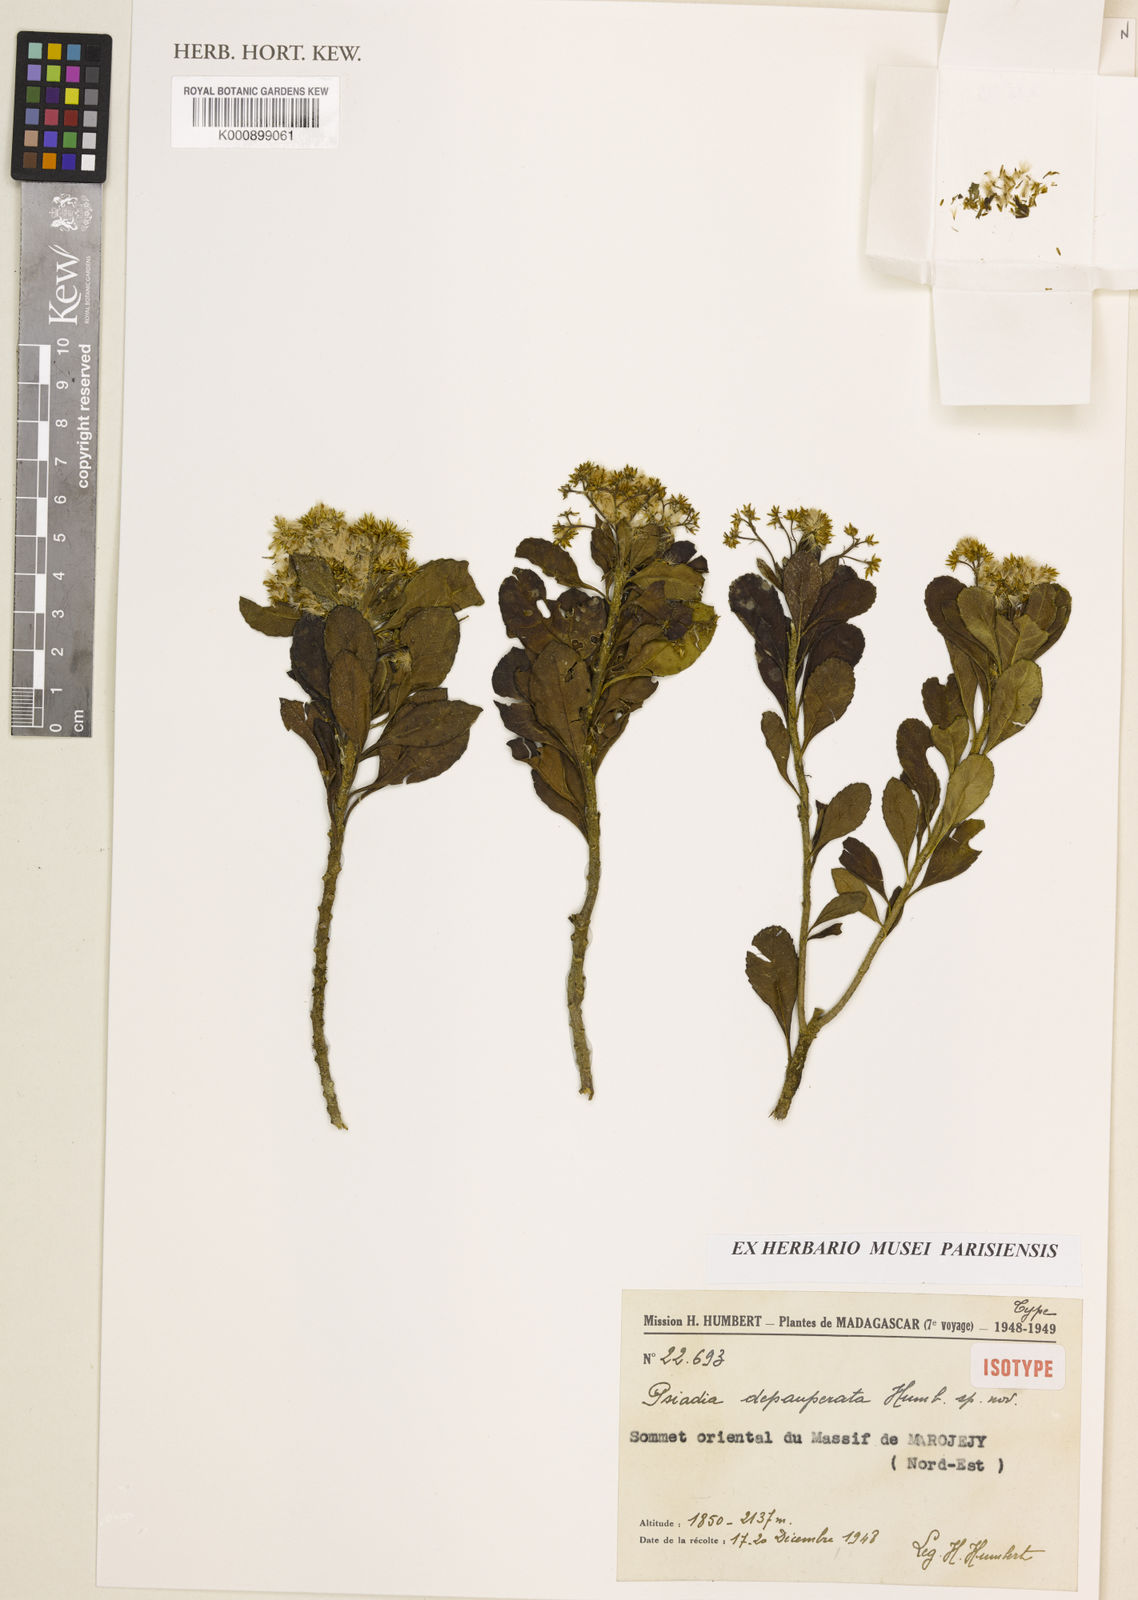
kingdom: Plantae
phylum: Tracheophyta
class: Magnoliopsida
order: Asterales
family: Asteraceae
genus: Psiadia
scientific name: Psiadia depauperata
